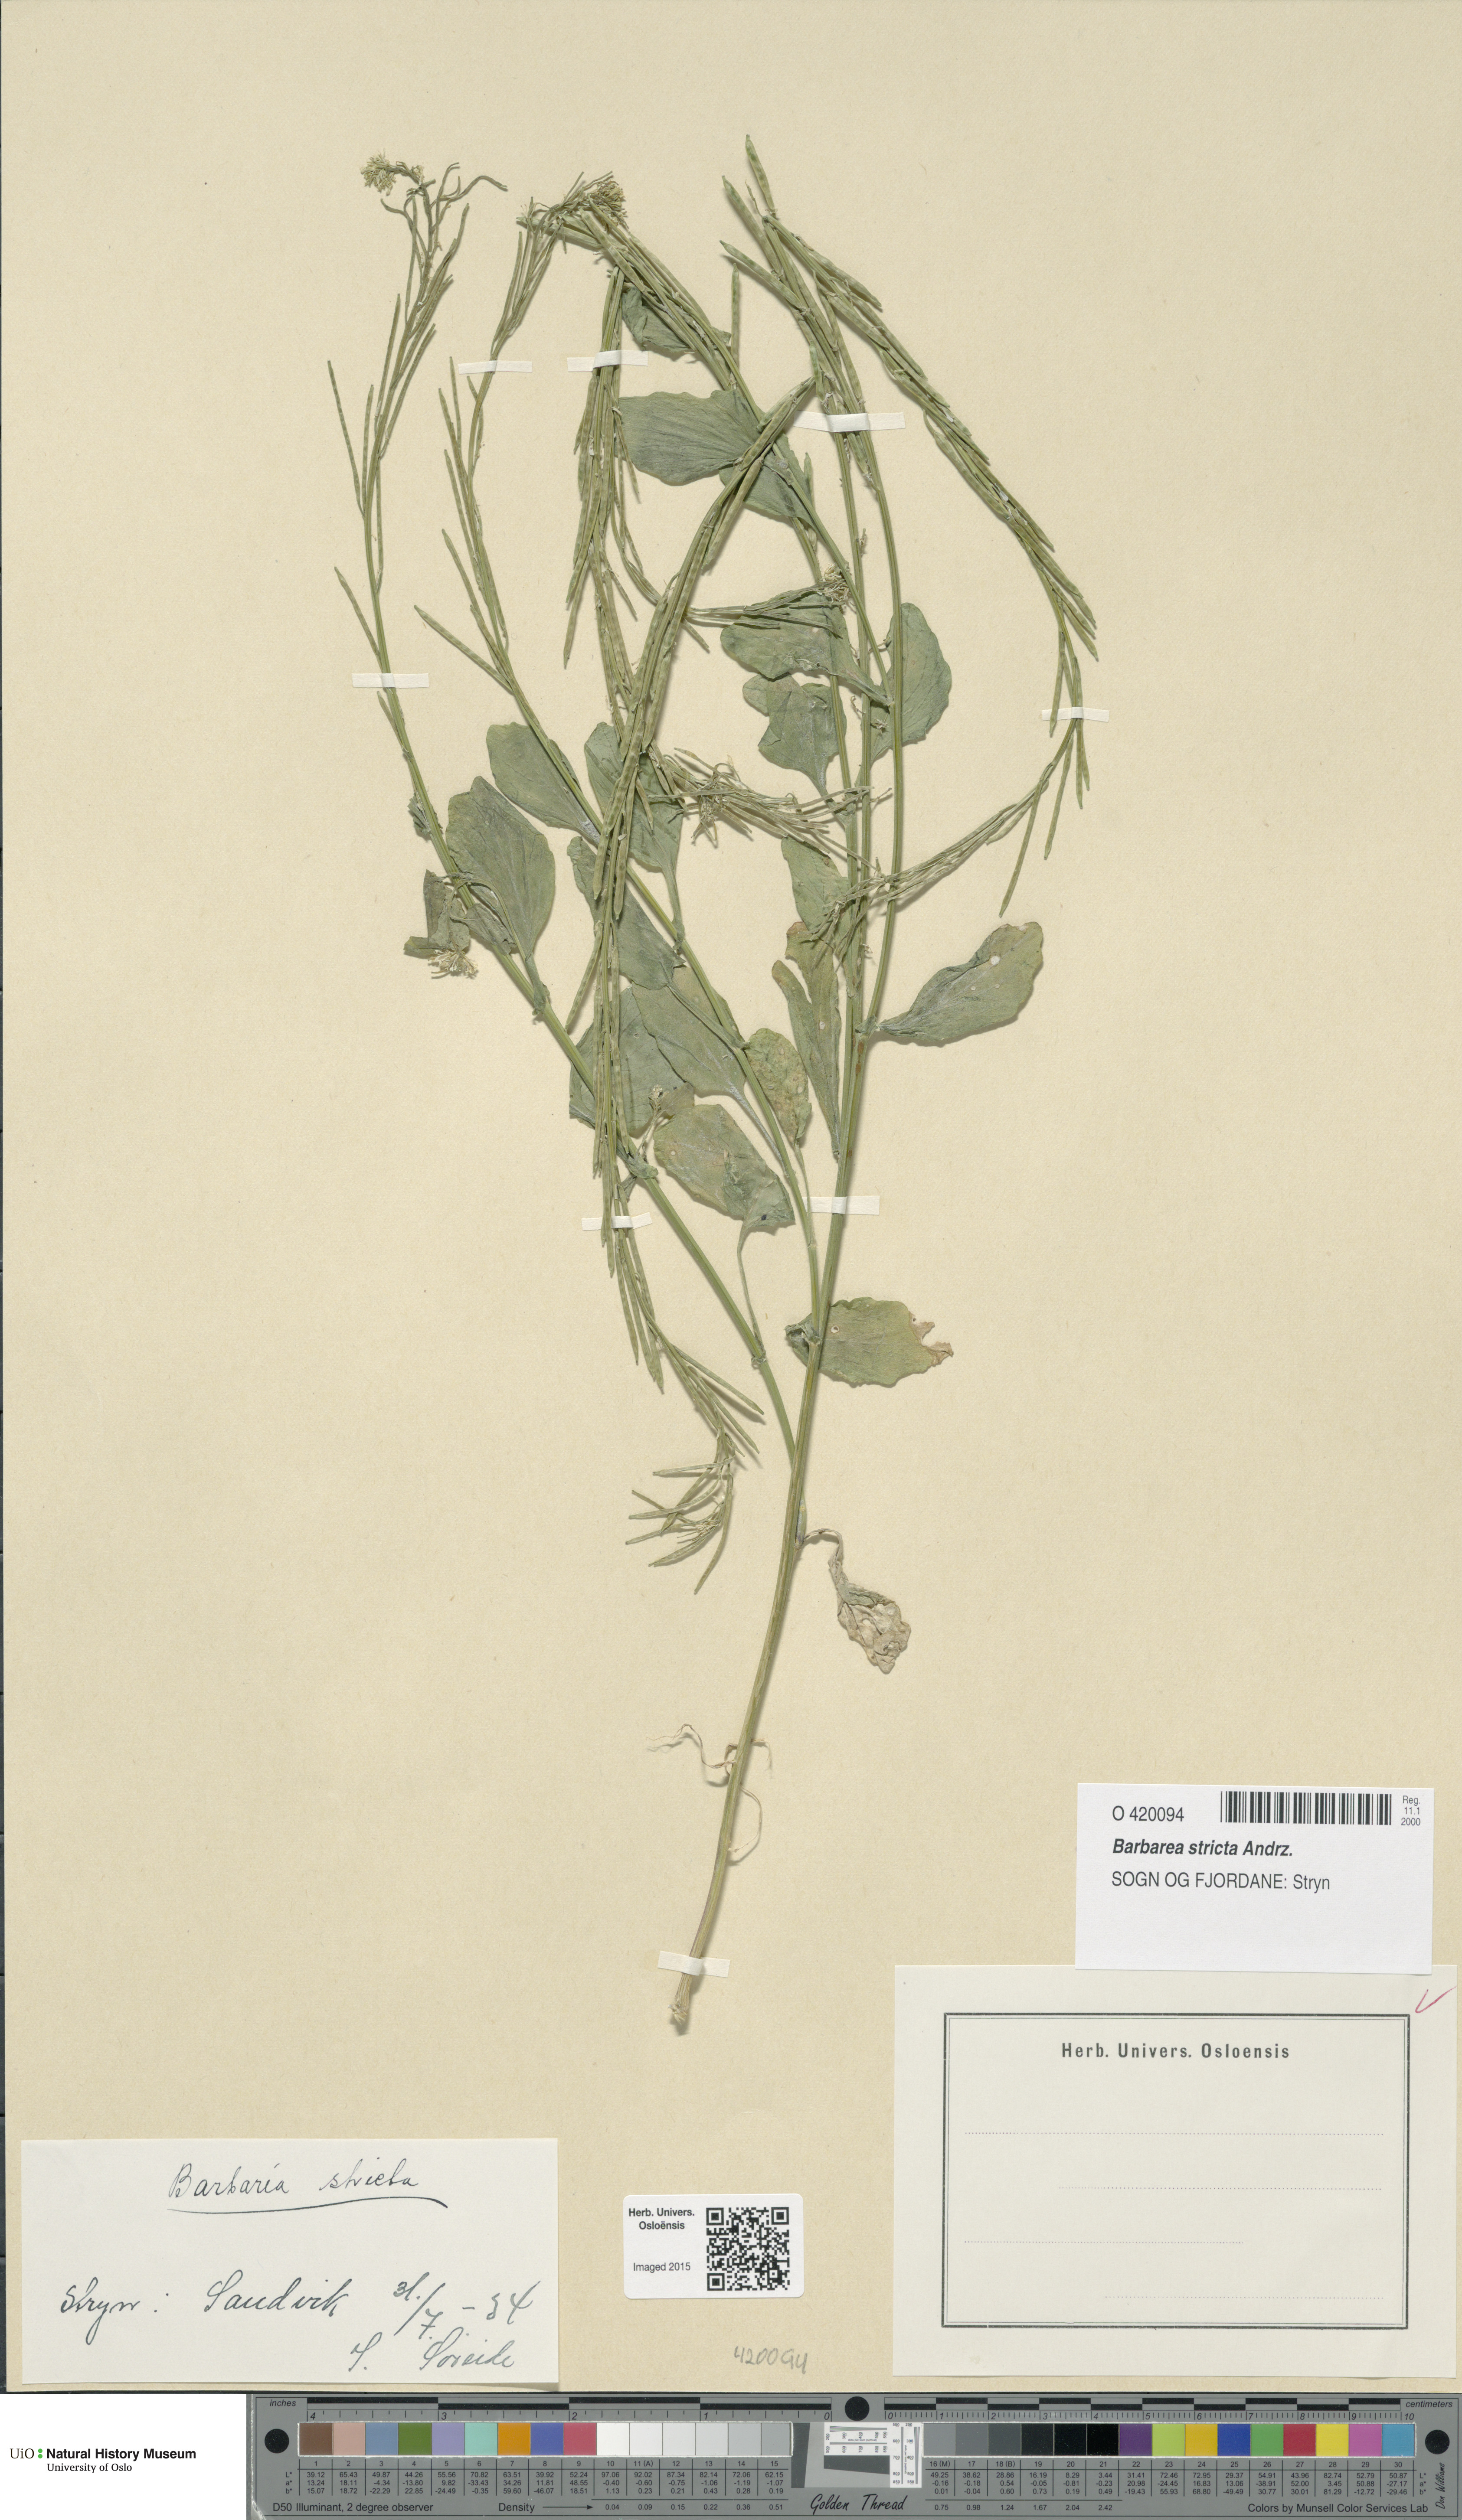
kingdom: Plantae
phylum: Tracheophyta
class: Magnoliopsida
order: Brassicales
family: Brassicaceae
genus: Barbarea
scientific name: Barbarea stricta
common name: Small-flowered winter-cress
